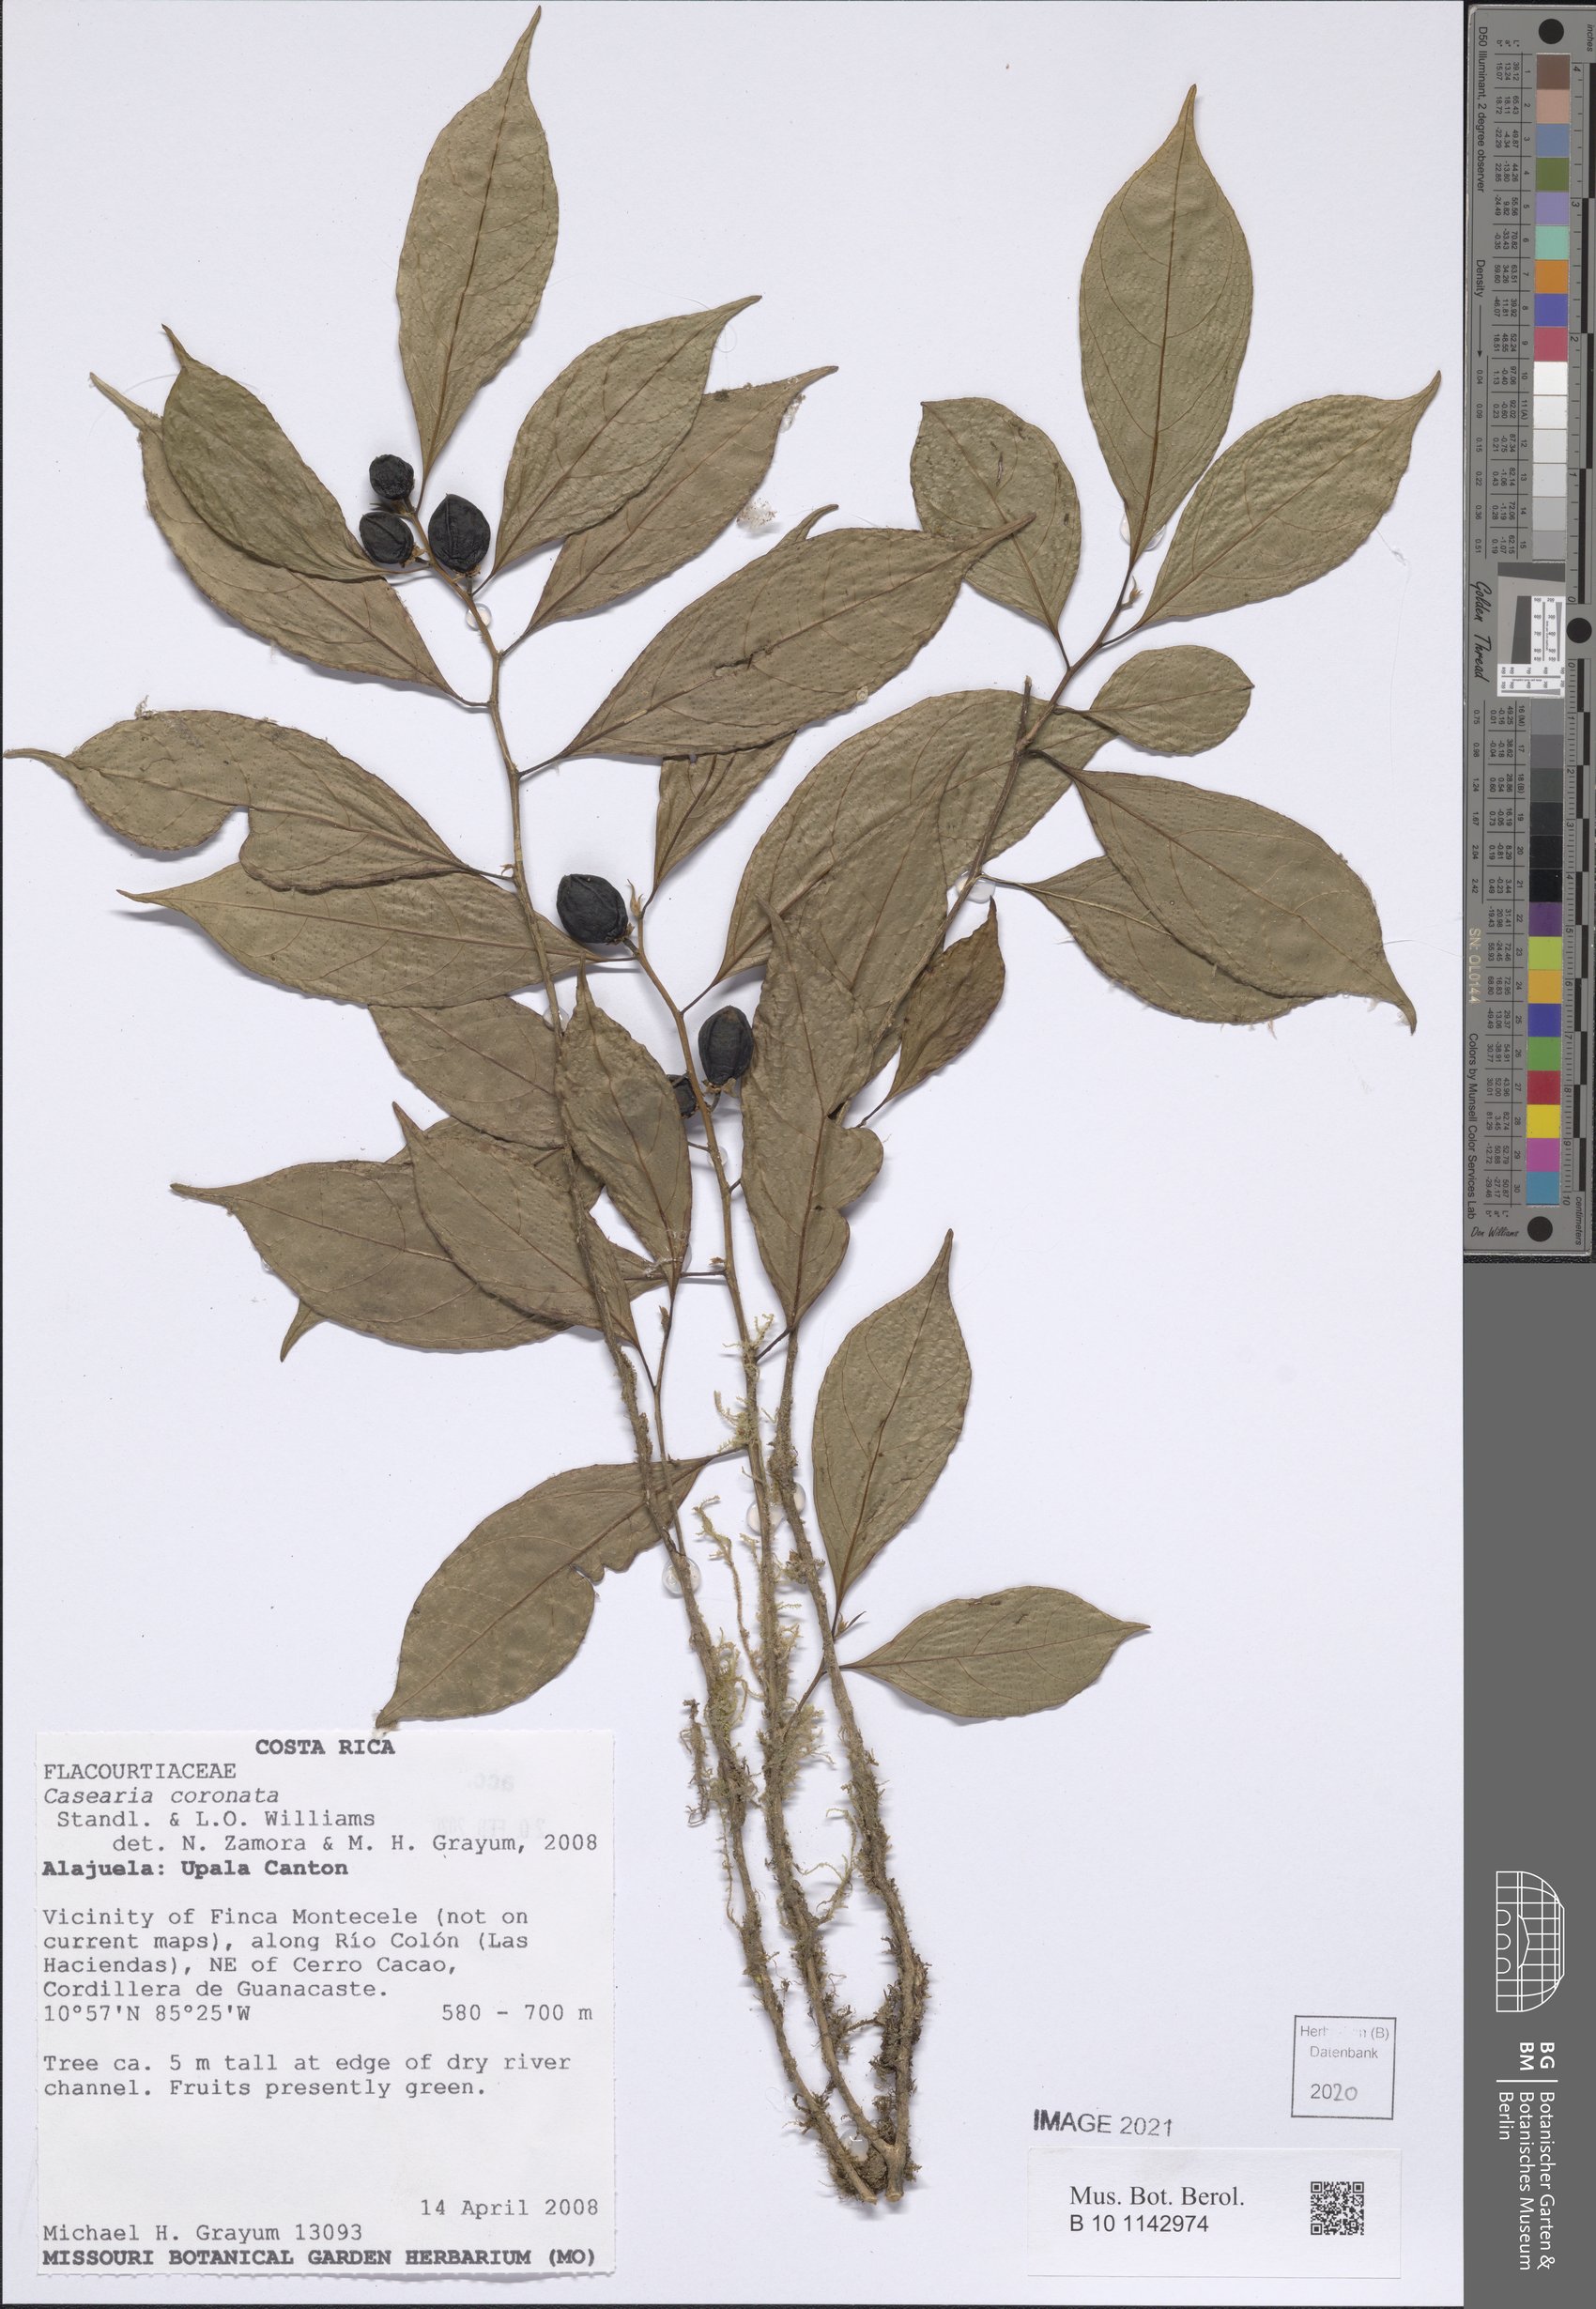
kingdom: Plantae
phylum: Tracheophyta
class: Magnoliopsida
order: Malpighiales
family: Salicaceae
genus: Casearia
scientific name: Casearia coronata
